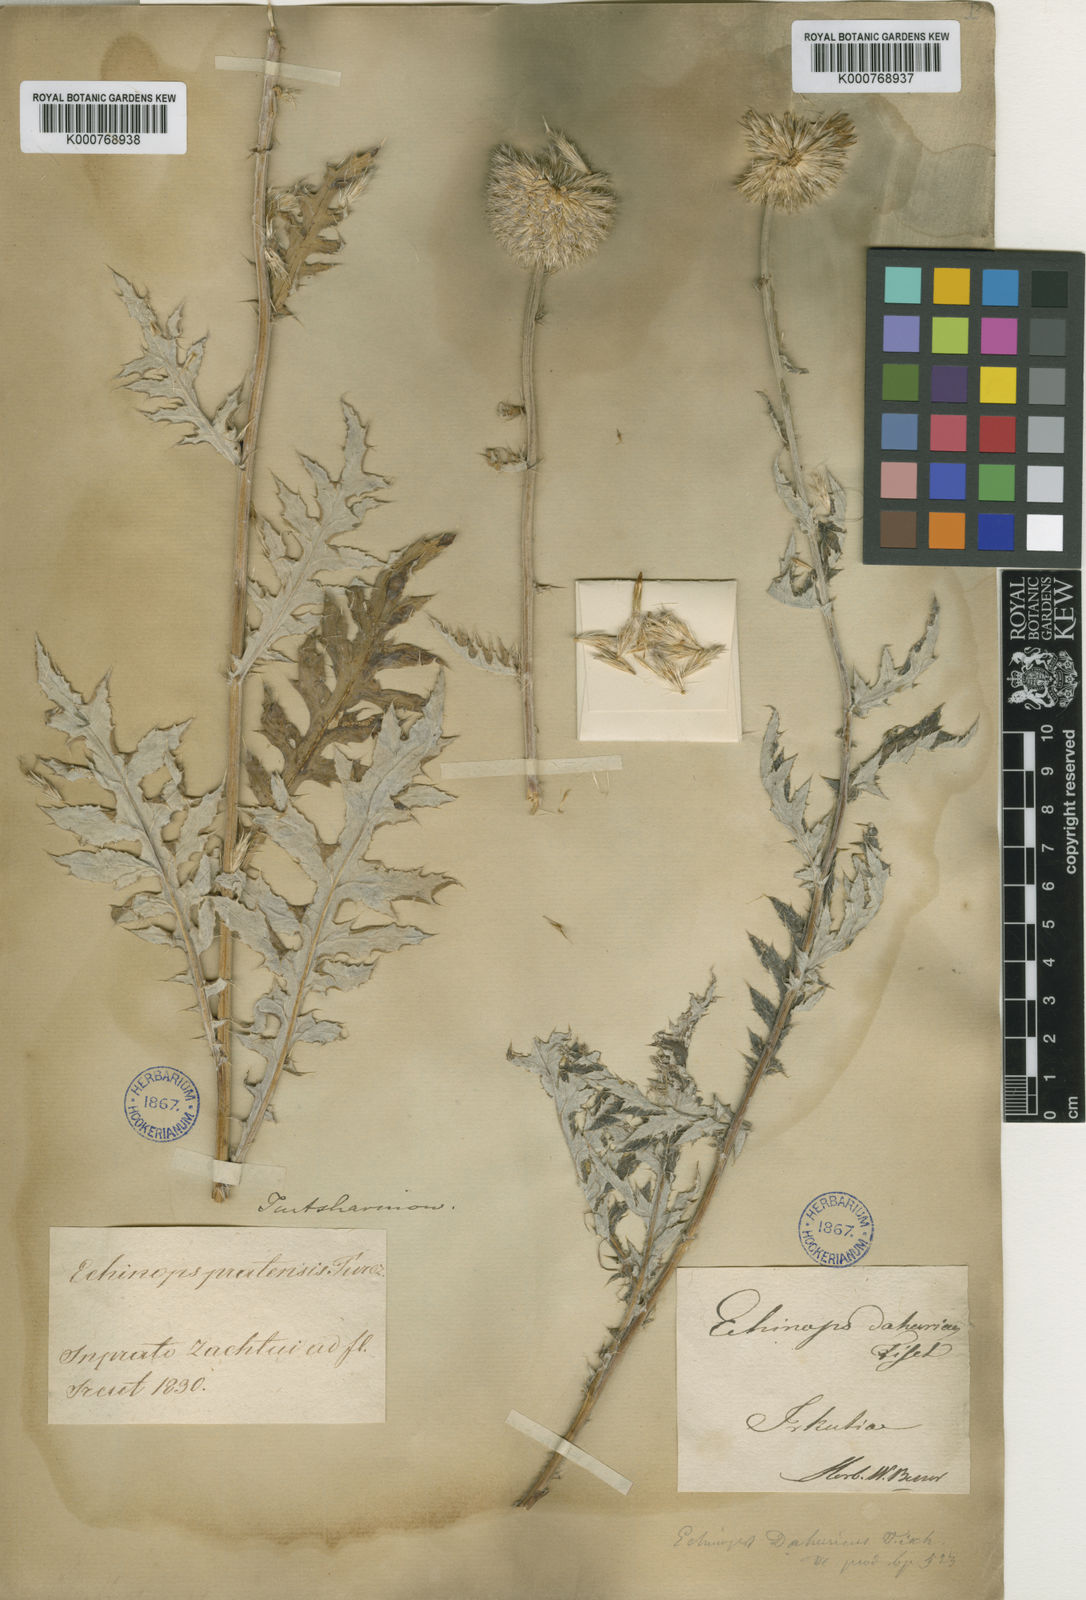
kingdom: Plantae
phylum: Tracheophyta
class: Magnoliopsida
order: Asterales
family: Asteraceae
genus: Echinops
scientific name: Echinops davuricus
